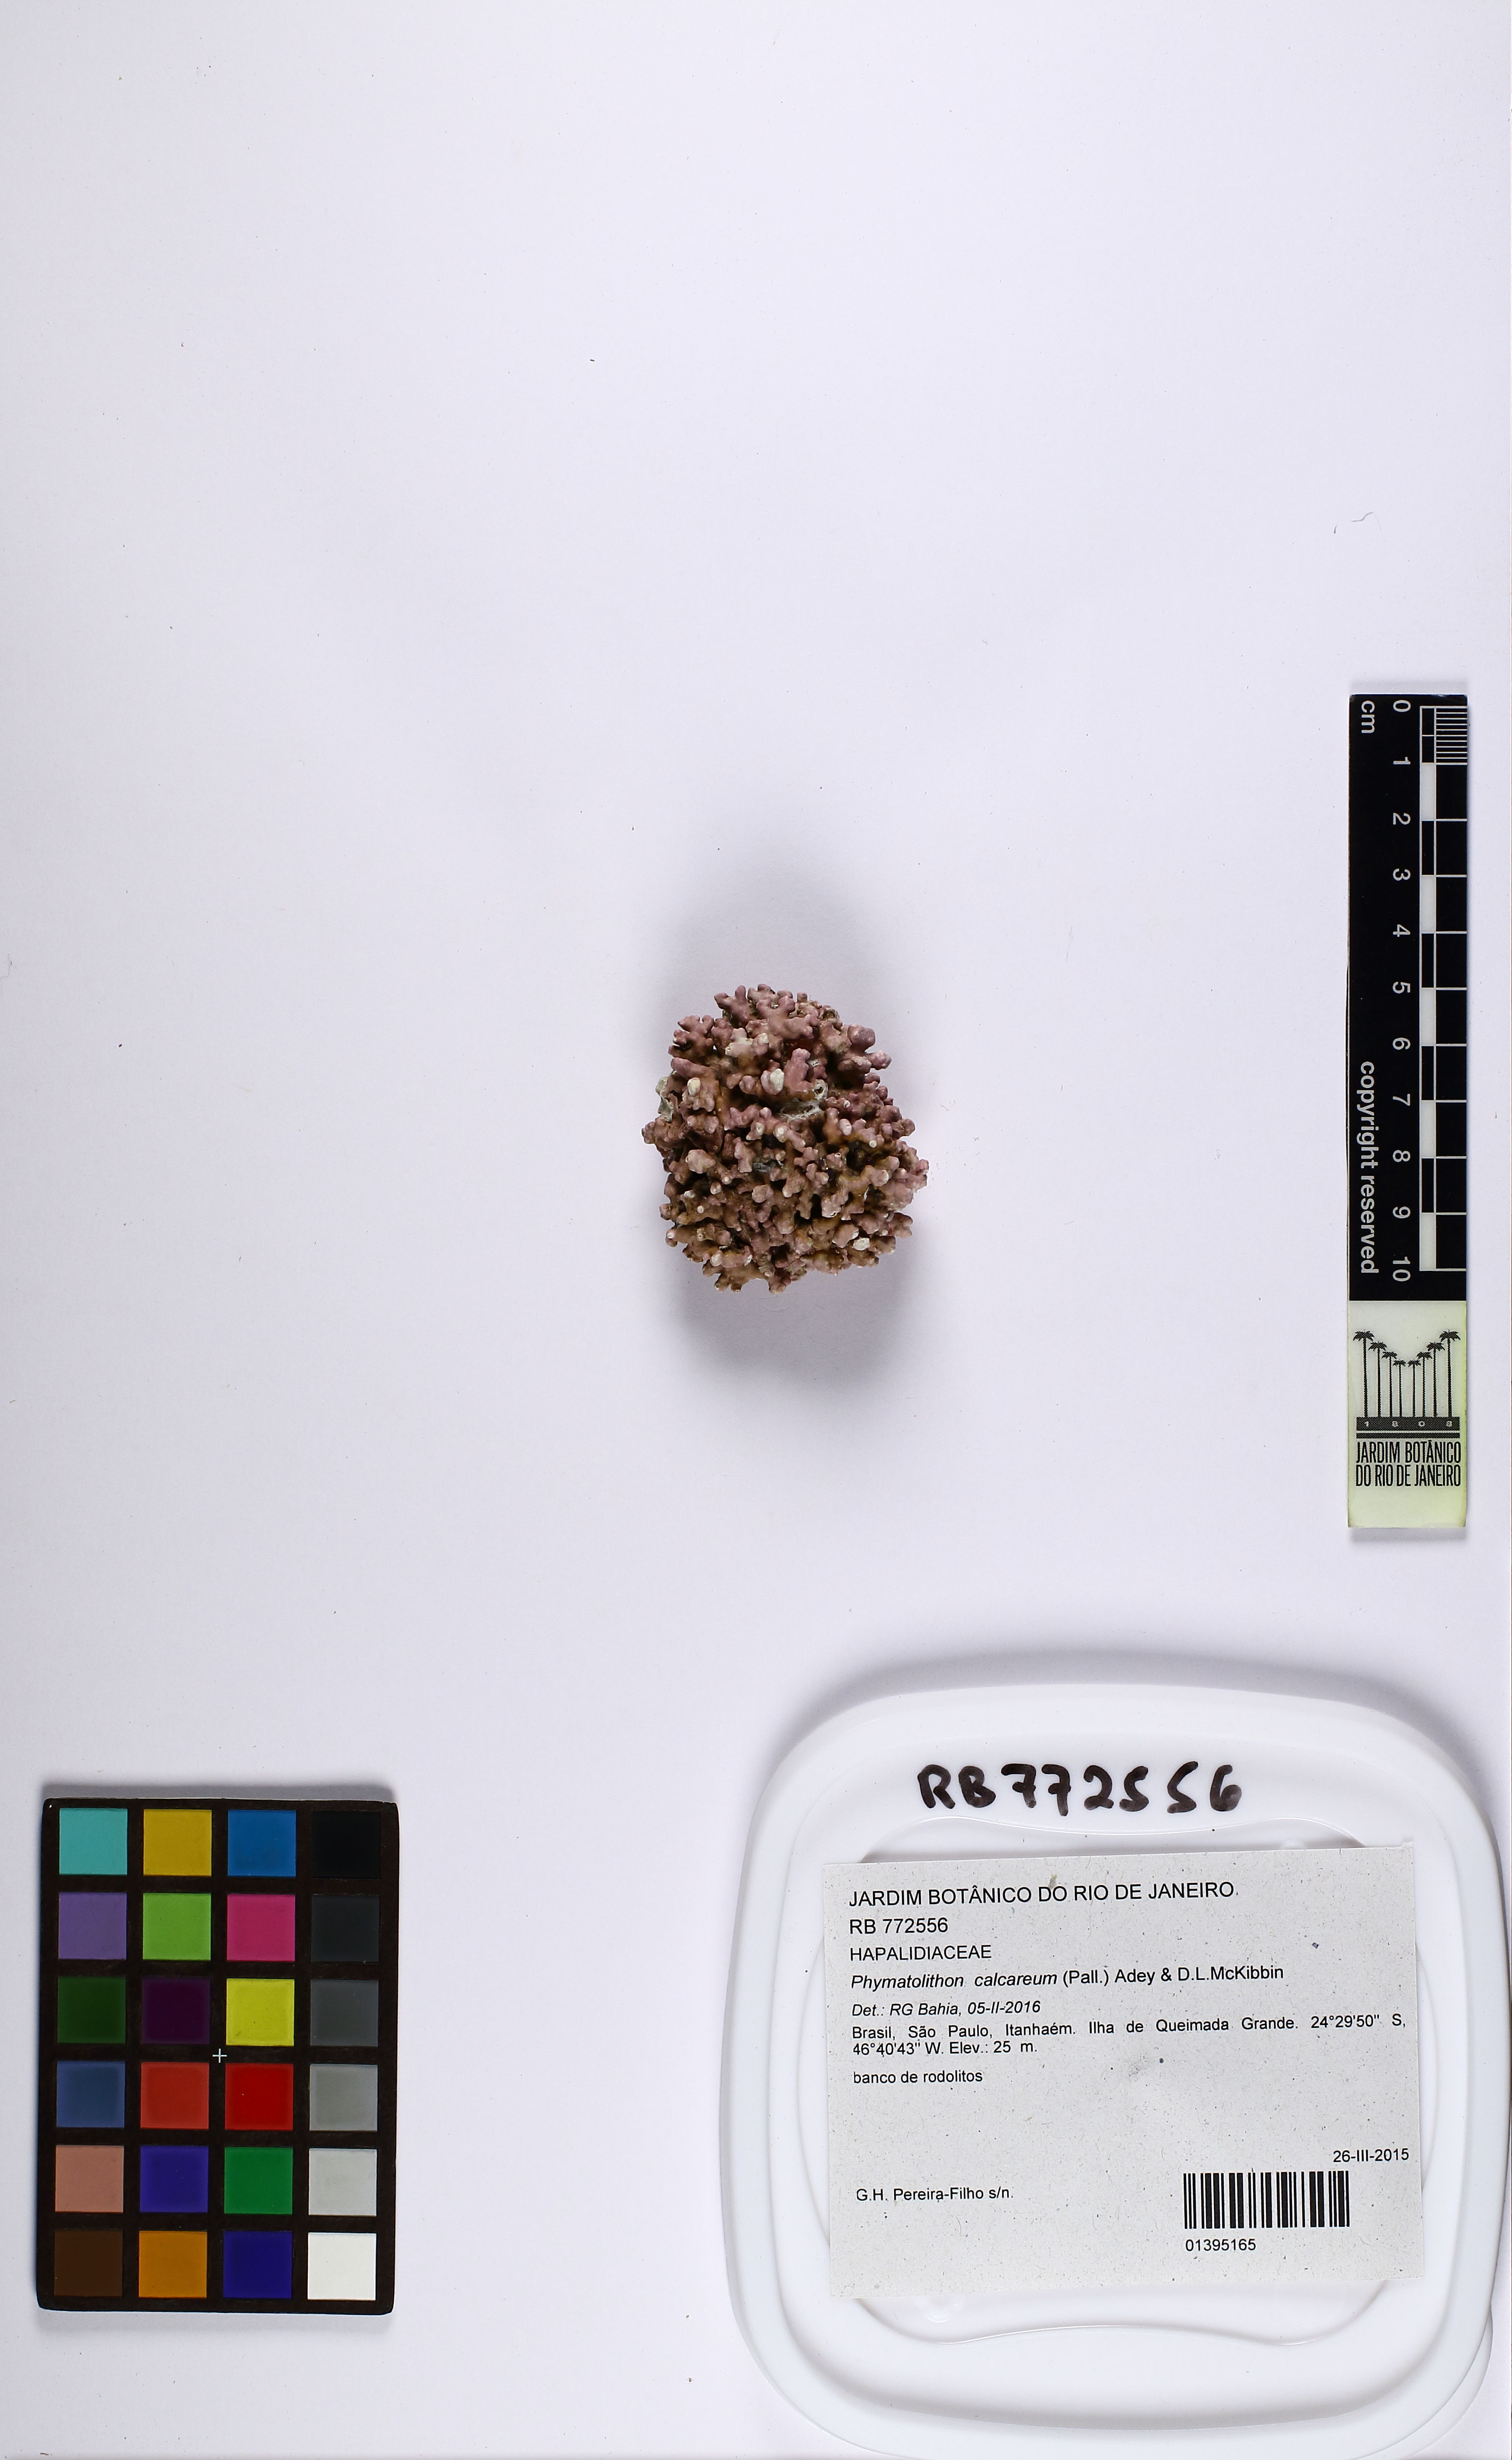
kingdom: Plantae
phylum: Rhodophyta
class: Florideophyceae
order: Corallinales
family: Hapalidiaceae
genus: Phymatolithon
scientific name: Phymatolithon calcareum
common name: Common maërl
